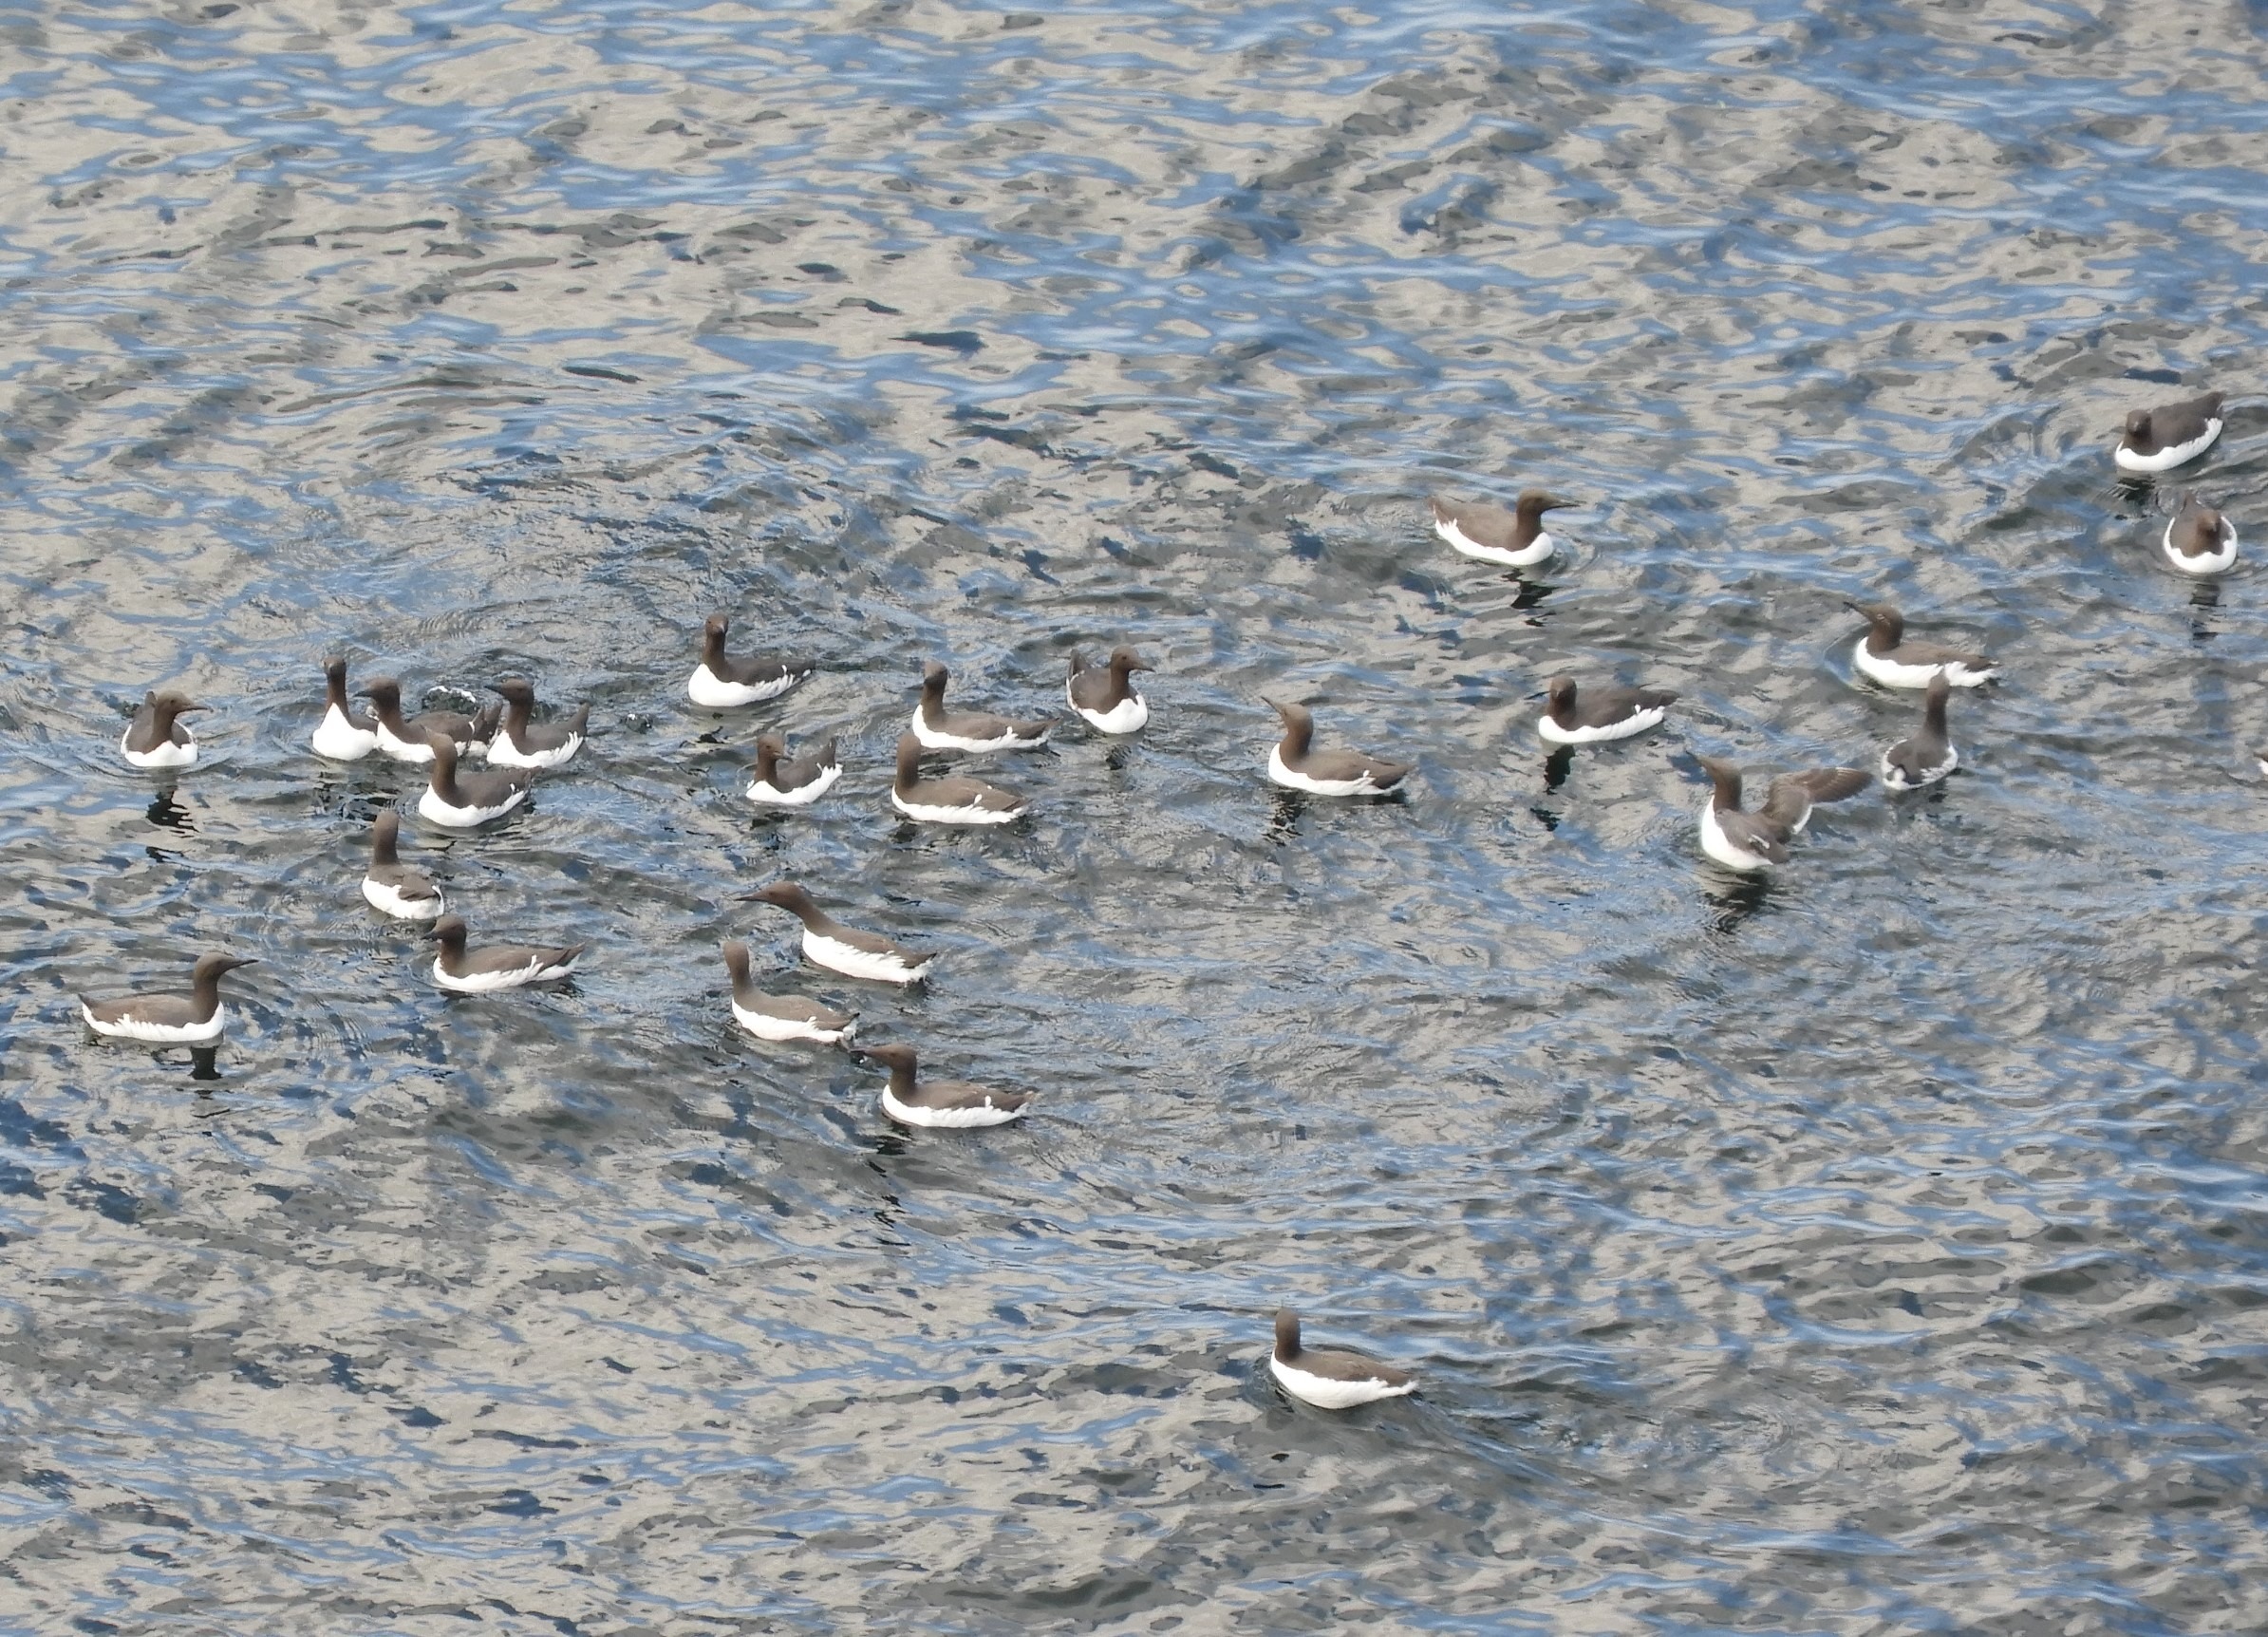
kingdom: Animalia
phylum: Chordata
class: Aves
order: Charadriiformes
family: Alcidae
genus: Uria
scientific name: Uria aalge
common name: Lomvie
